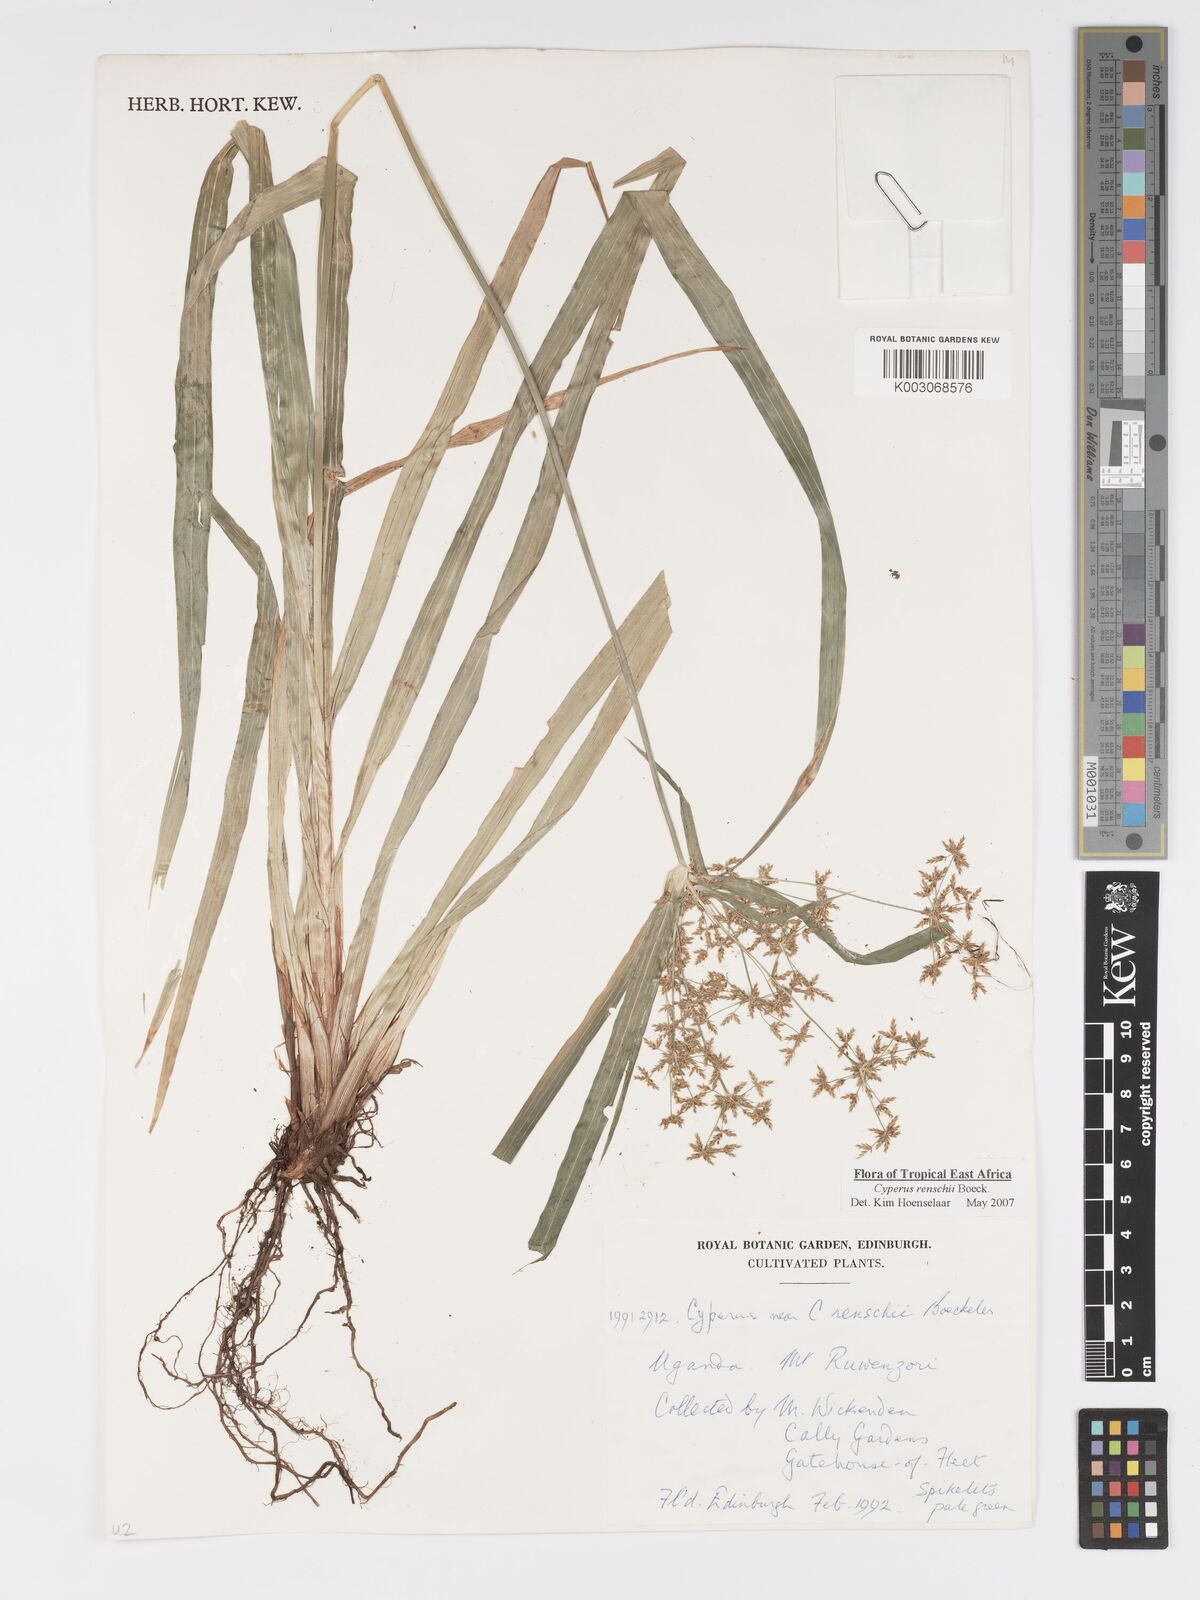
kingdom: Plantae
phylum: Tracheophyta
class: Liliopsida
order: Poales
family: Cyperaceae
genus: Cyperus
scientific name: Cyperus renschii
